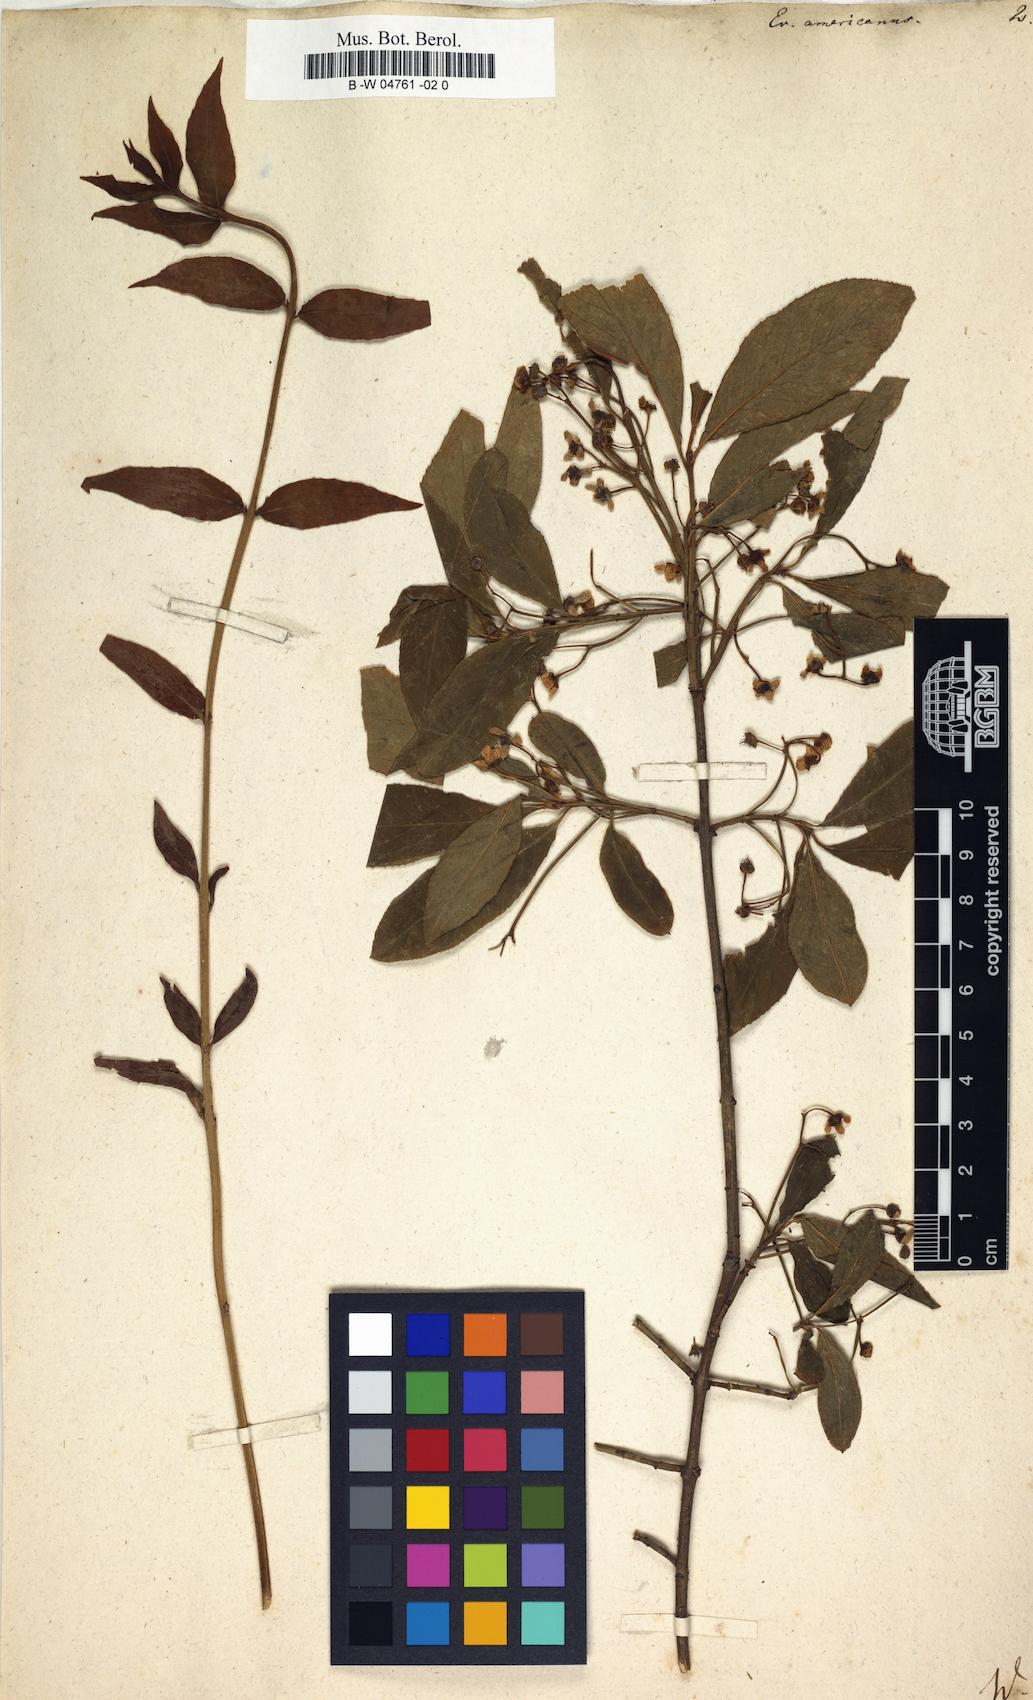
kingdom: Plantae
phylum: Tracheophyta
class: Magnoliopsida
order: Celastrales
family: Celastraceae
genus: Euonymus
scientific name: Euonymus americanus
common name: Bursting-heart
